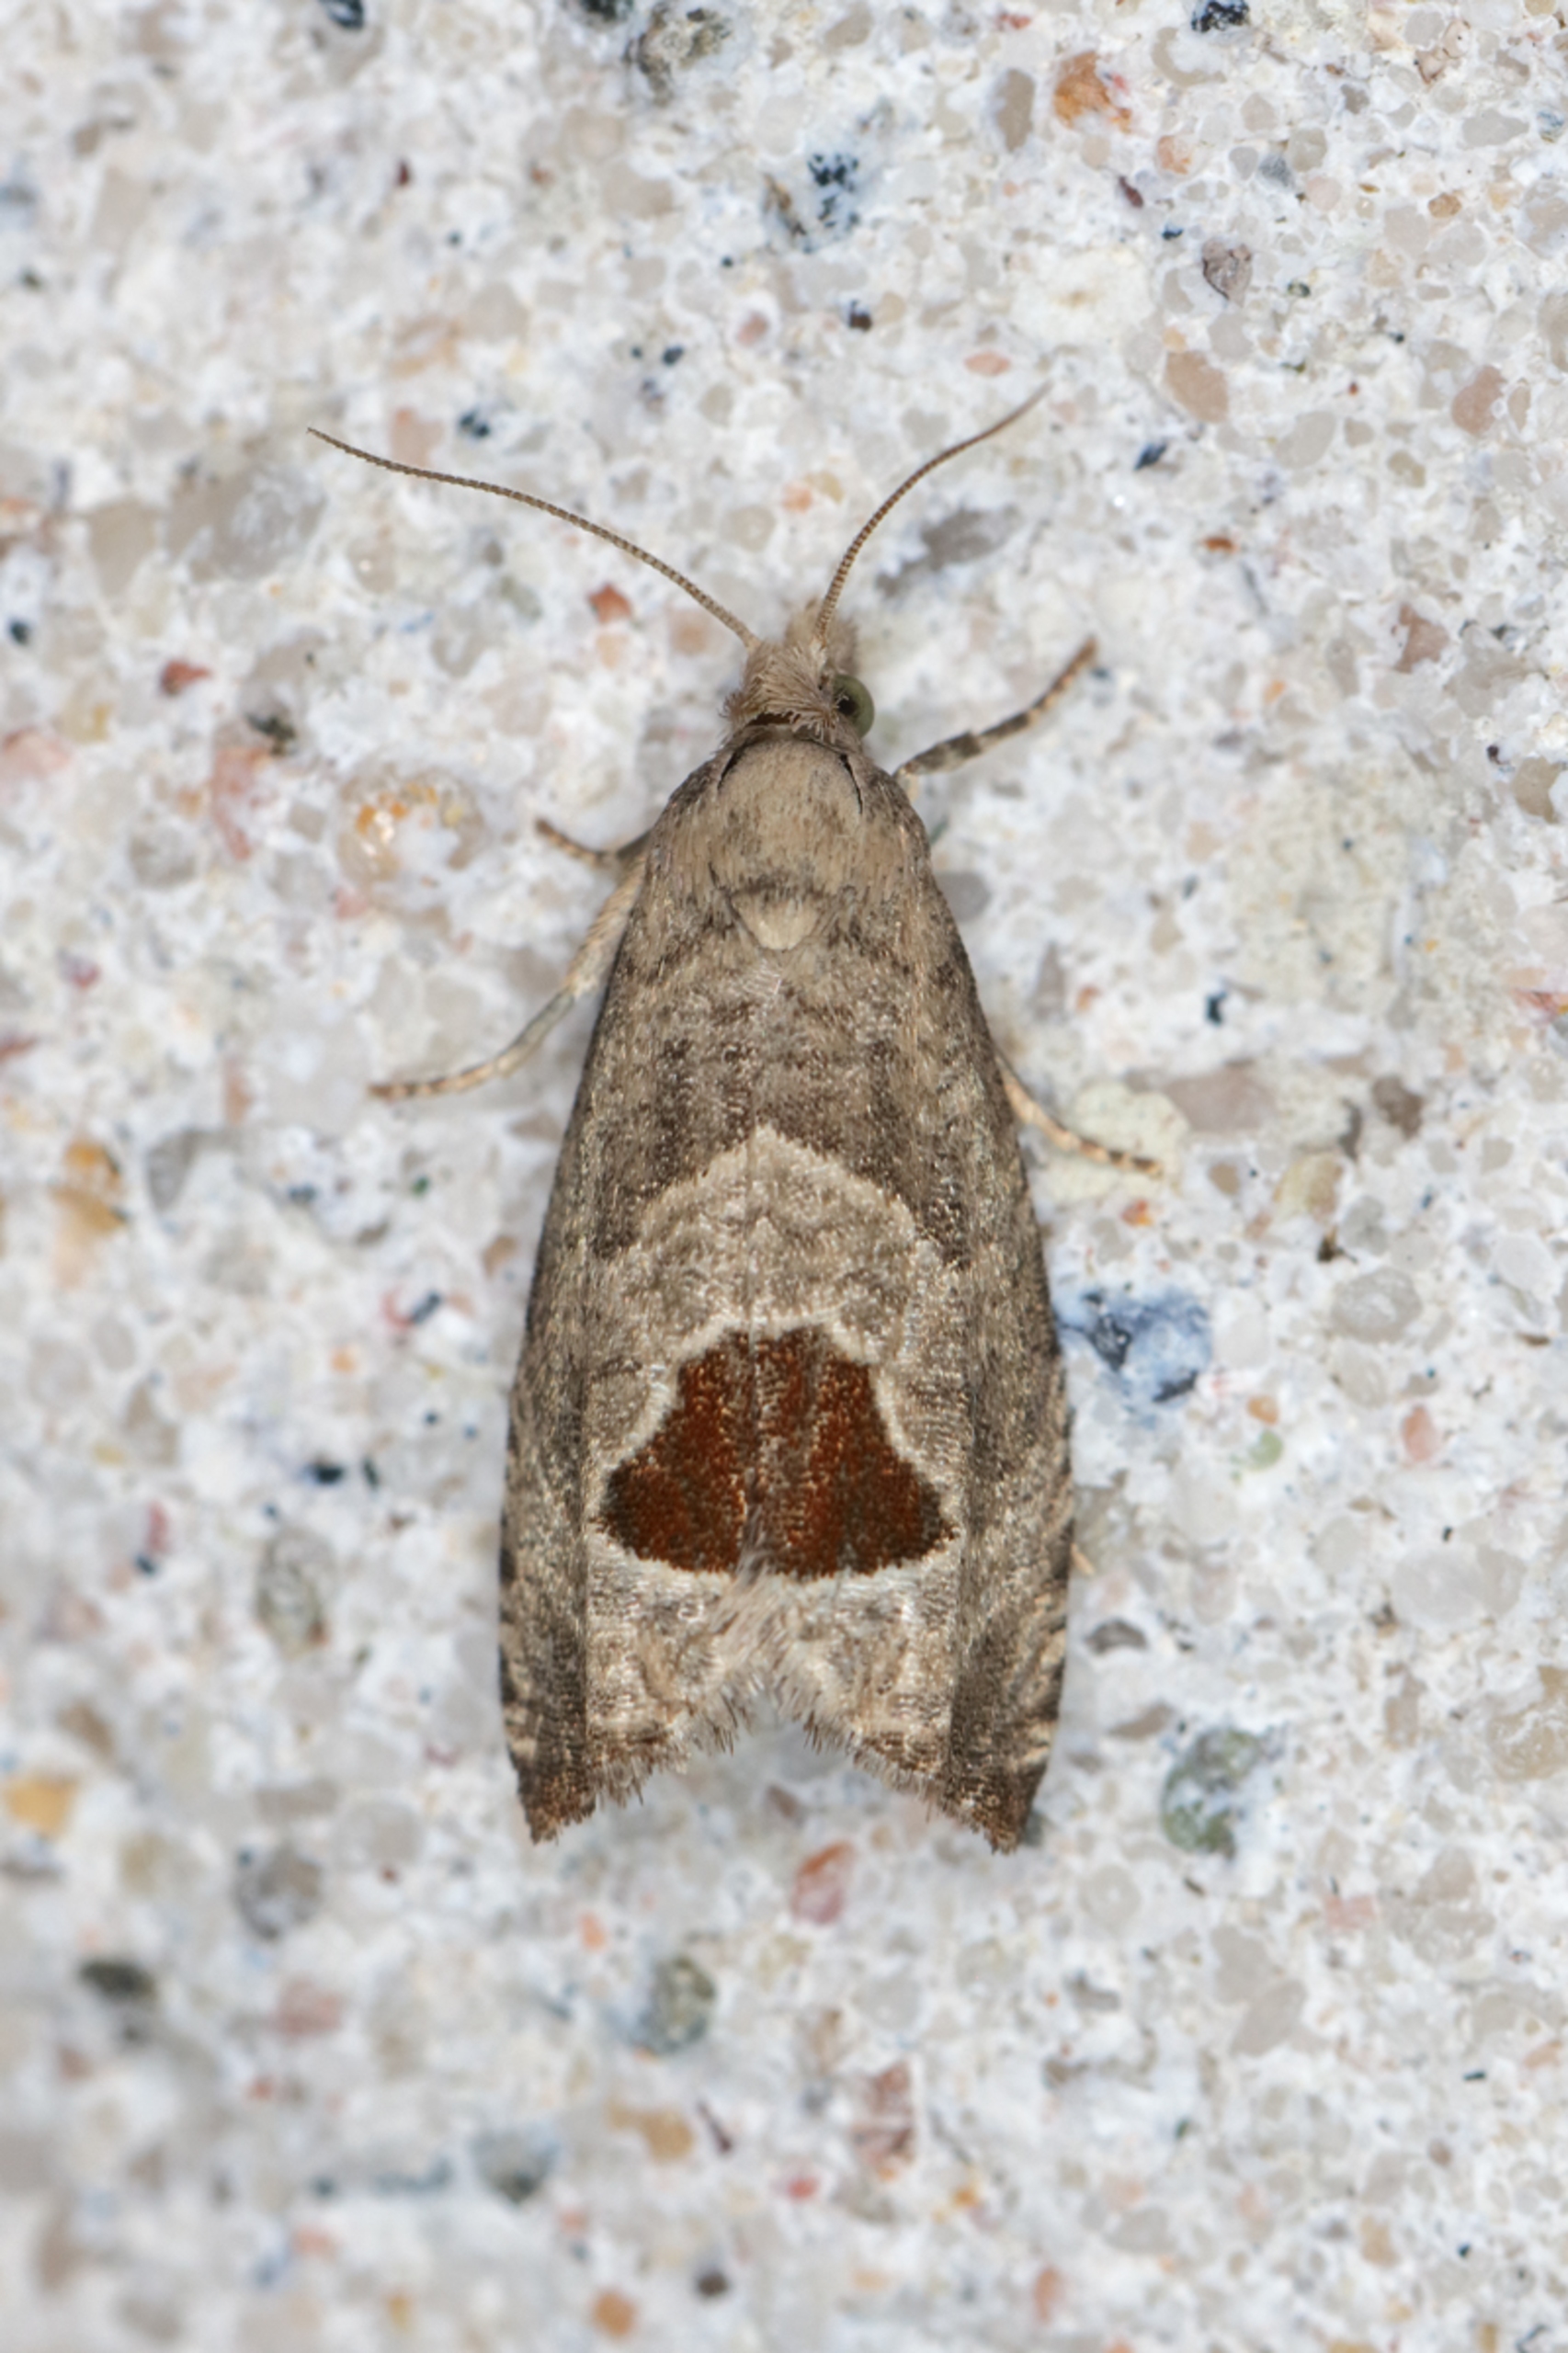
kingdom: Animalia
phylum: Arthropoda
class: Insecta
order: Lepidoptera
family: Tortricidae
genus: Notocelia
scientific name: Notocelia uddmanniana
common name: Brombærvikler
